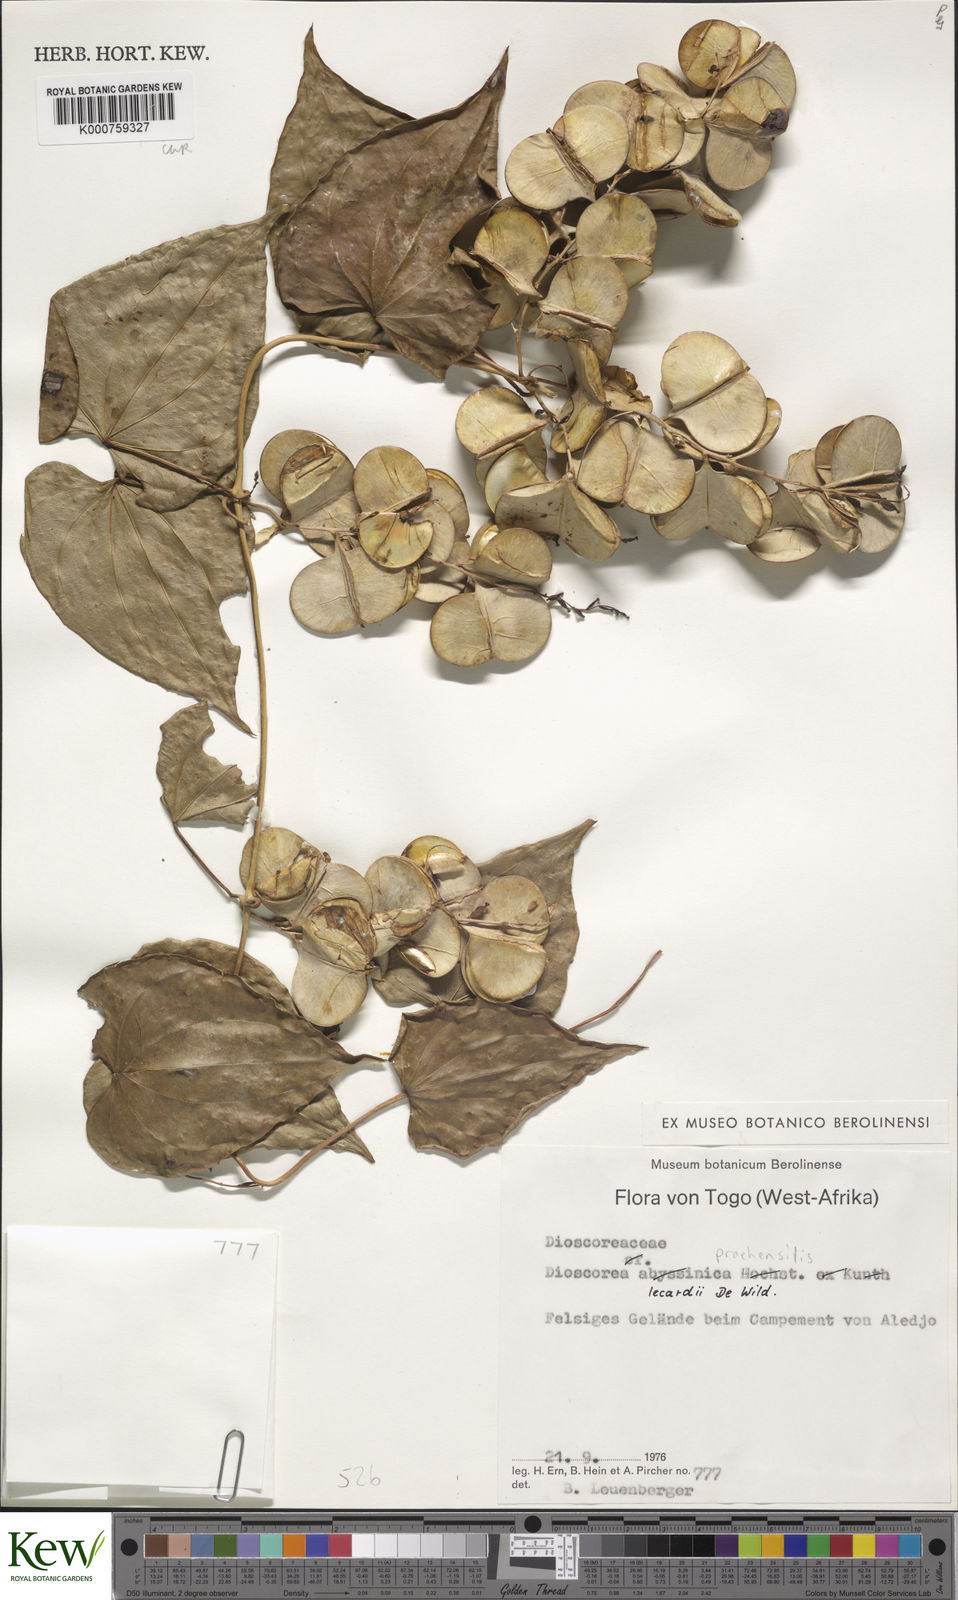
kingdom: Plantae
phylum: Tracheophyta
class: Liliopsida
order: Dioscoreales
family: Dioscoreaceae
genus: Dioscorea
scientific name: Dioscorea praehensilis
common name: Bush yam
